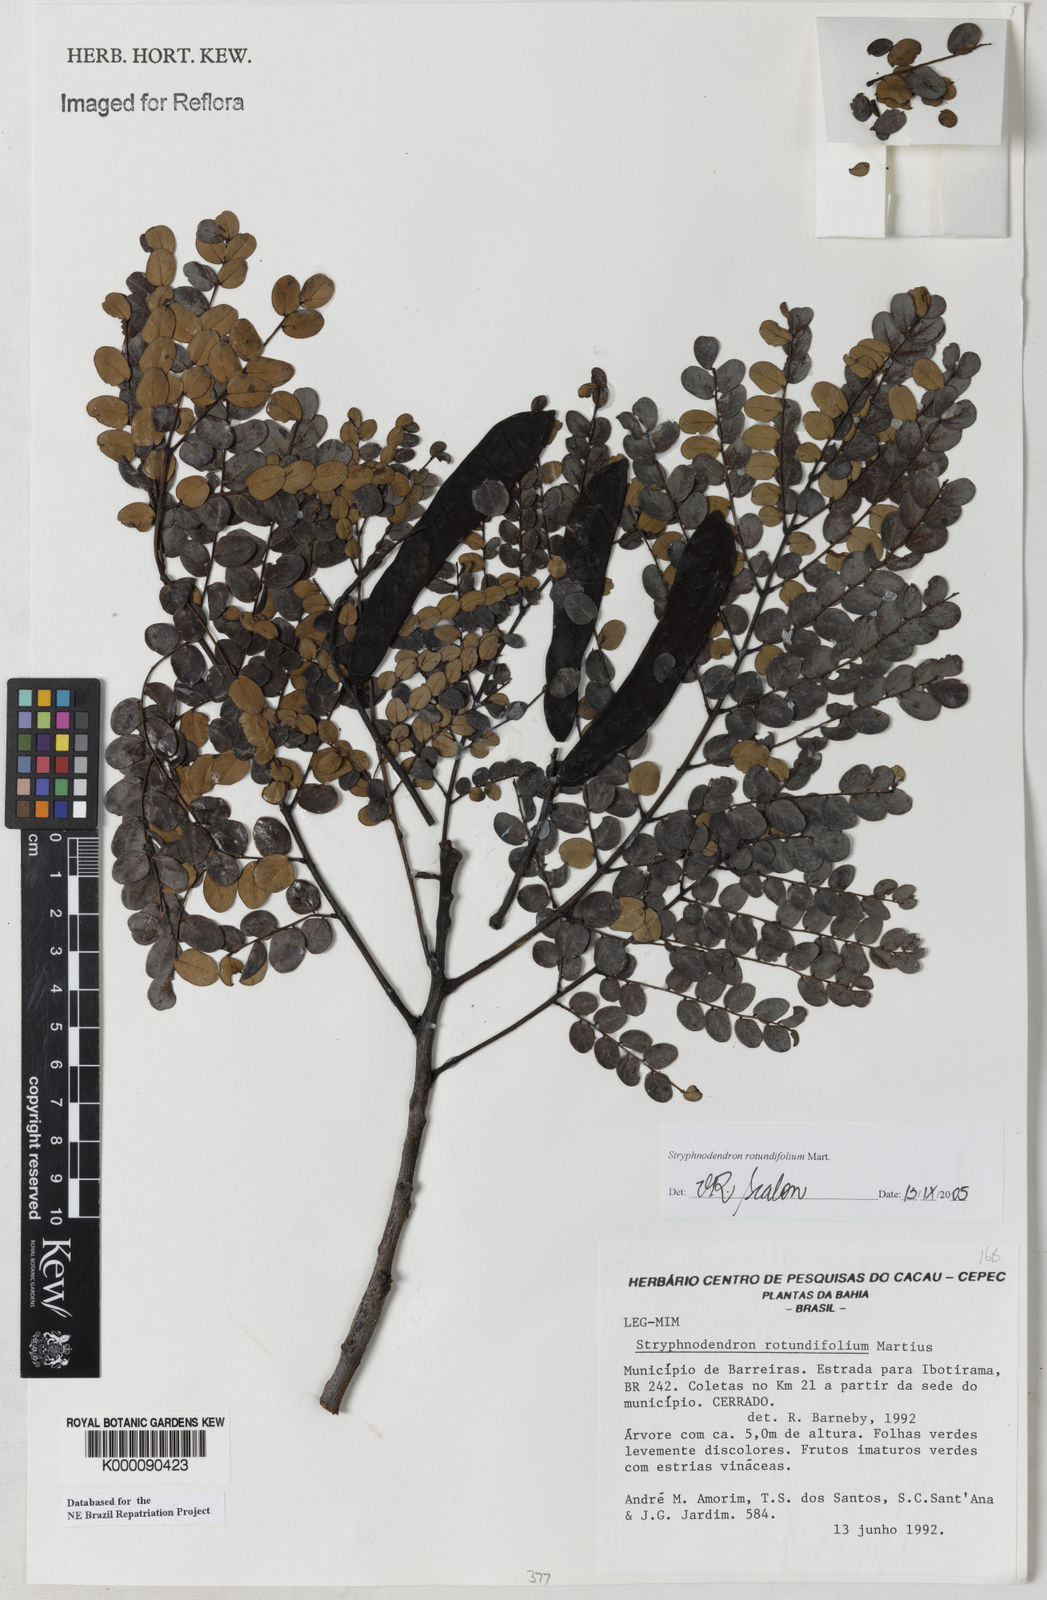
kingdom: Plantae
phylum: Tracheophyta
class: Magnoliopsida
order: Fabales
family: Fabaceae
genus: Stryphnodendron
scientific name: Stryphnodendron rotundifolium
